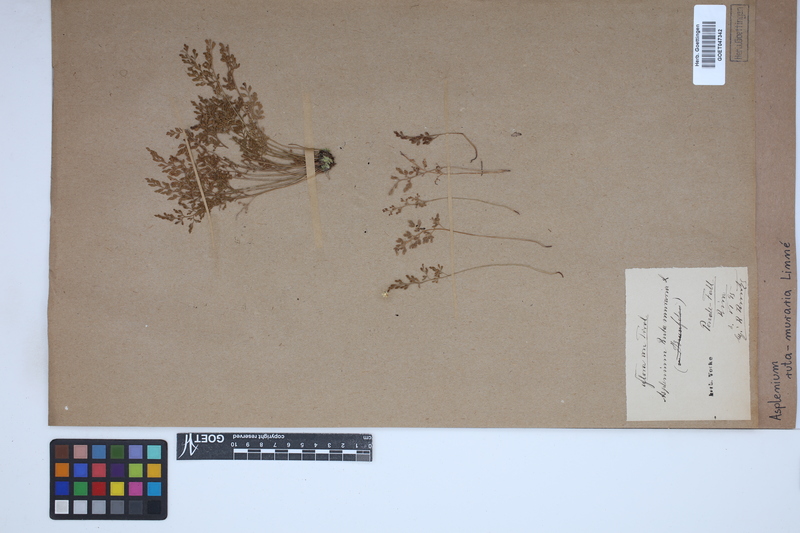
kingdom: Plantae
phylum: Tracheophyta
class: Polypodiopsida
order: Polypodiales
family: Aspleniaceae
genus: Asplenium
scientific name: Asplenium ruta-muraria
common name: Wall-rue
